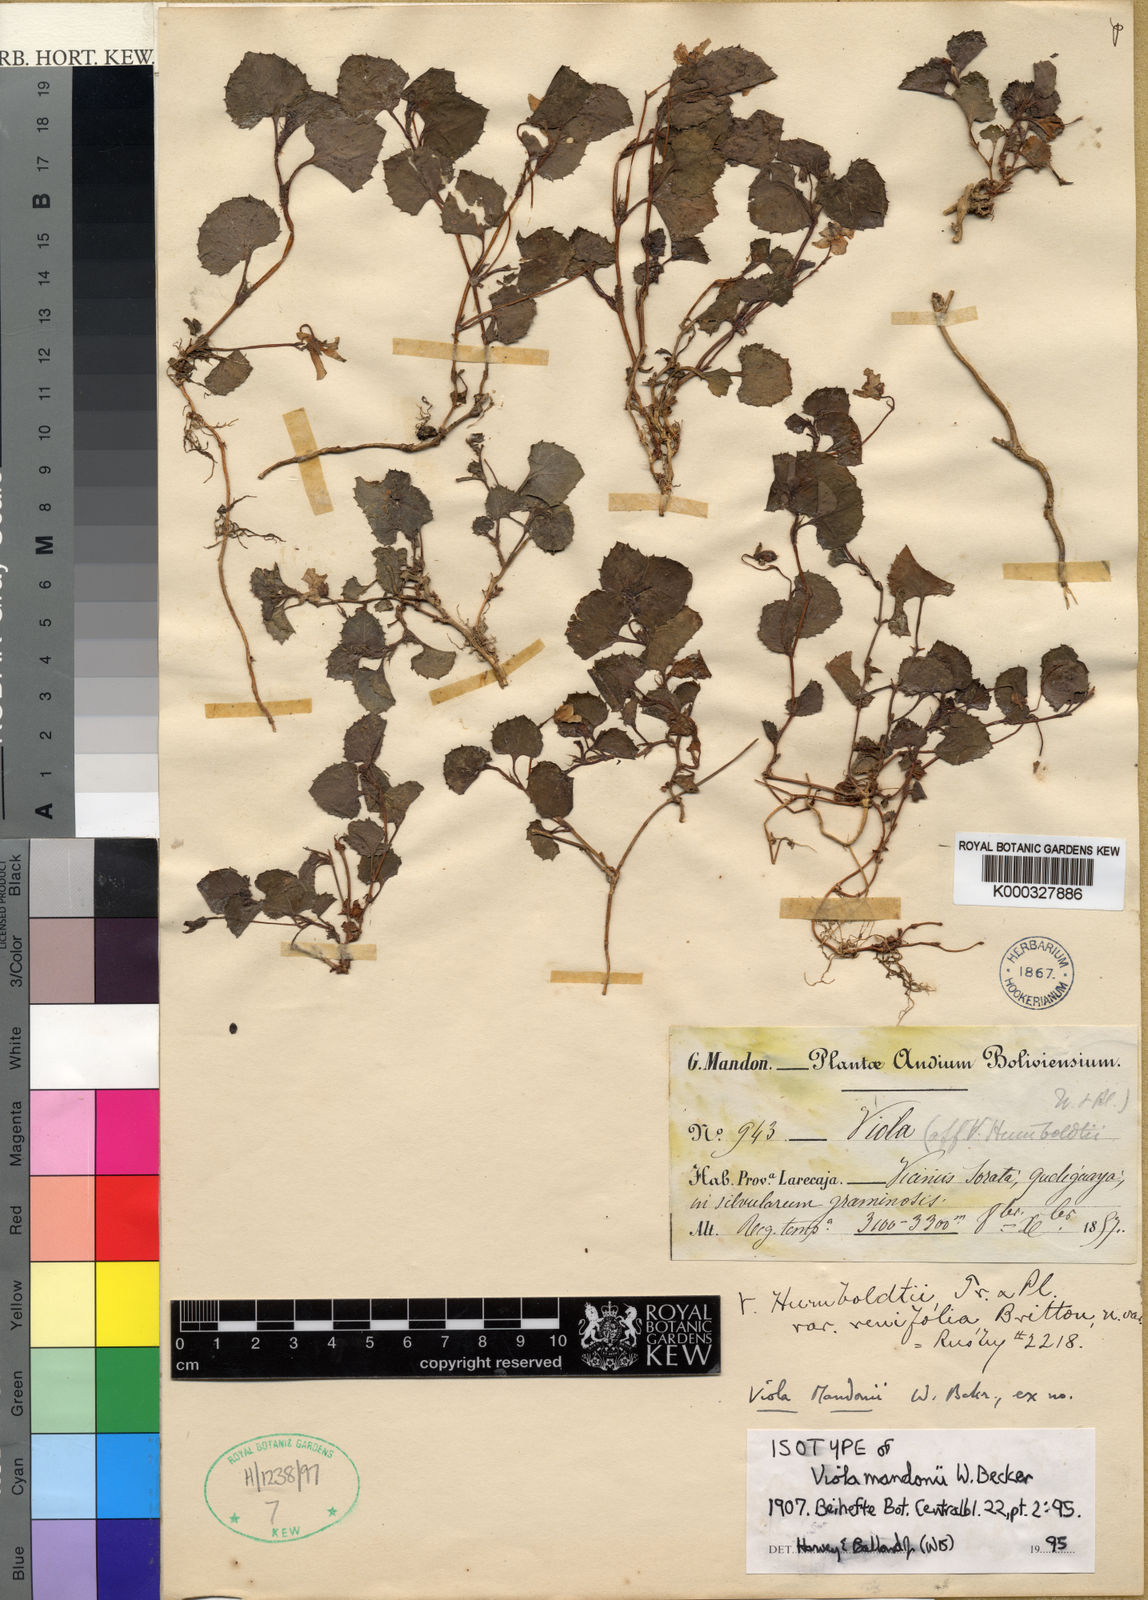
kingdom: Plantae
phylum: Tracheophyta
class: Magnoliopsida
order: Malpighiales
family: Violaceae
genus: Viola
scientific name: Viola mandonii
